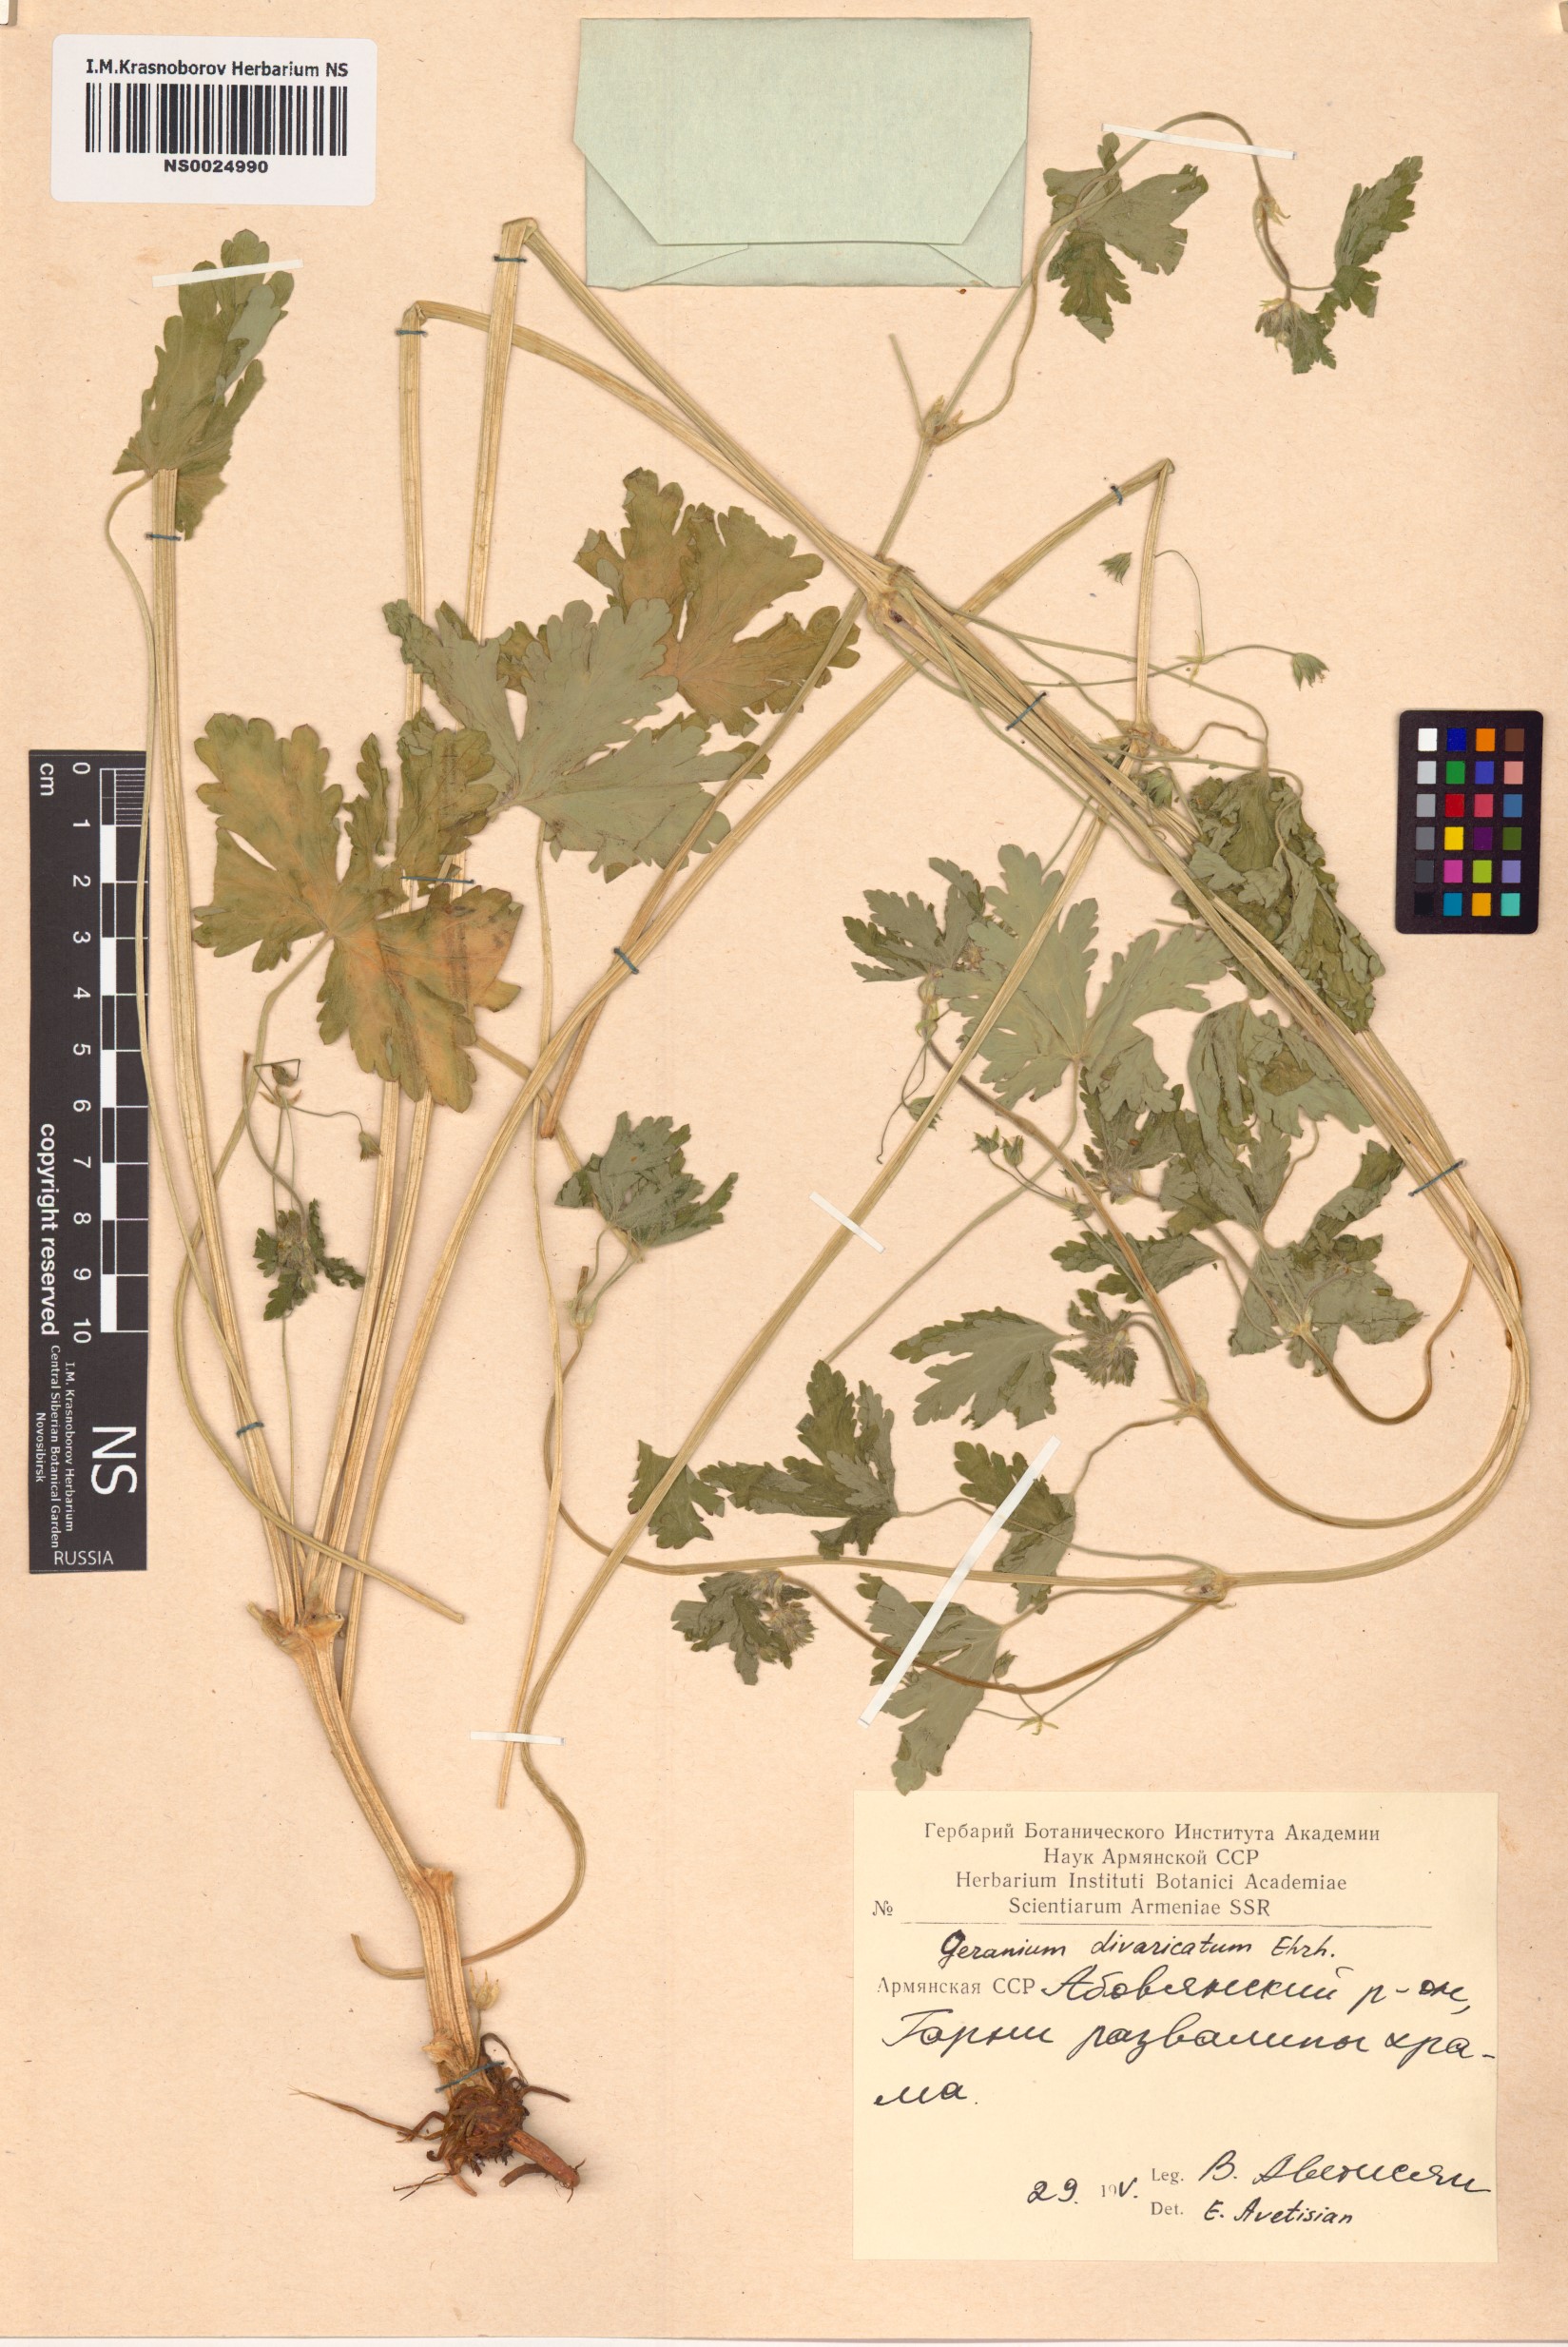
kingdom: Plantae
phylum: Tracheophyta
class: Magnoliopsida
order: Geraniales
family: Geraniaceae
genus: Geranium
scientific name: Geranium divaricatum
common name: Spreading crane's-bill
